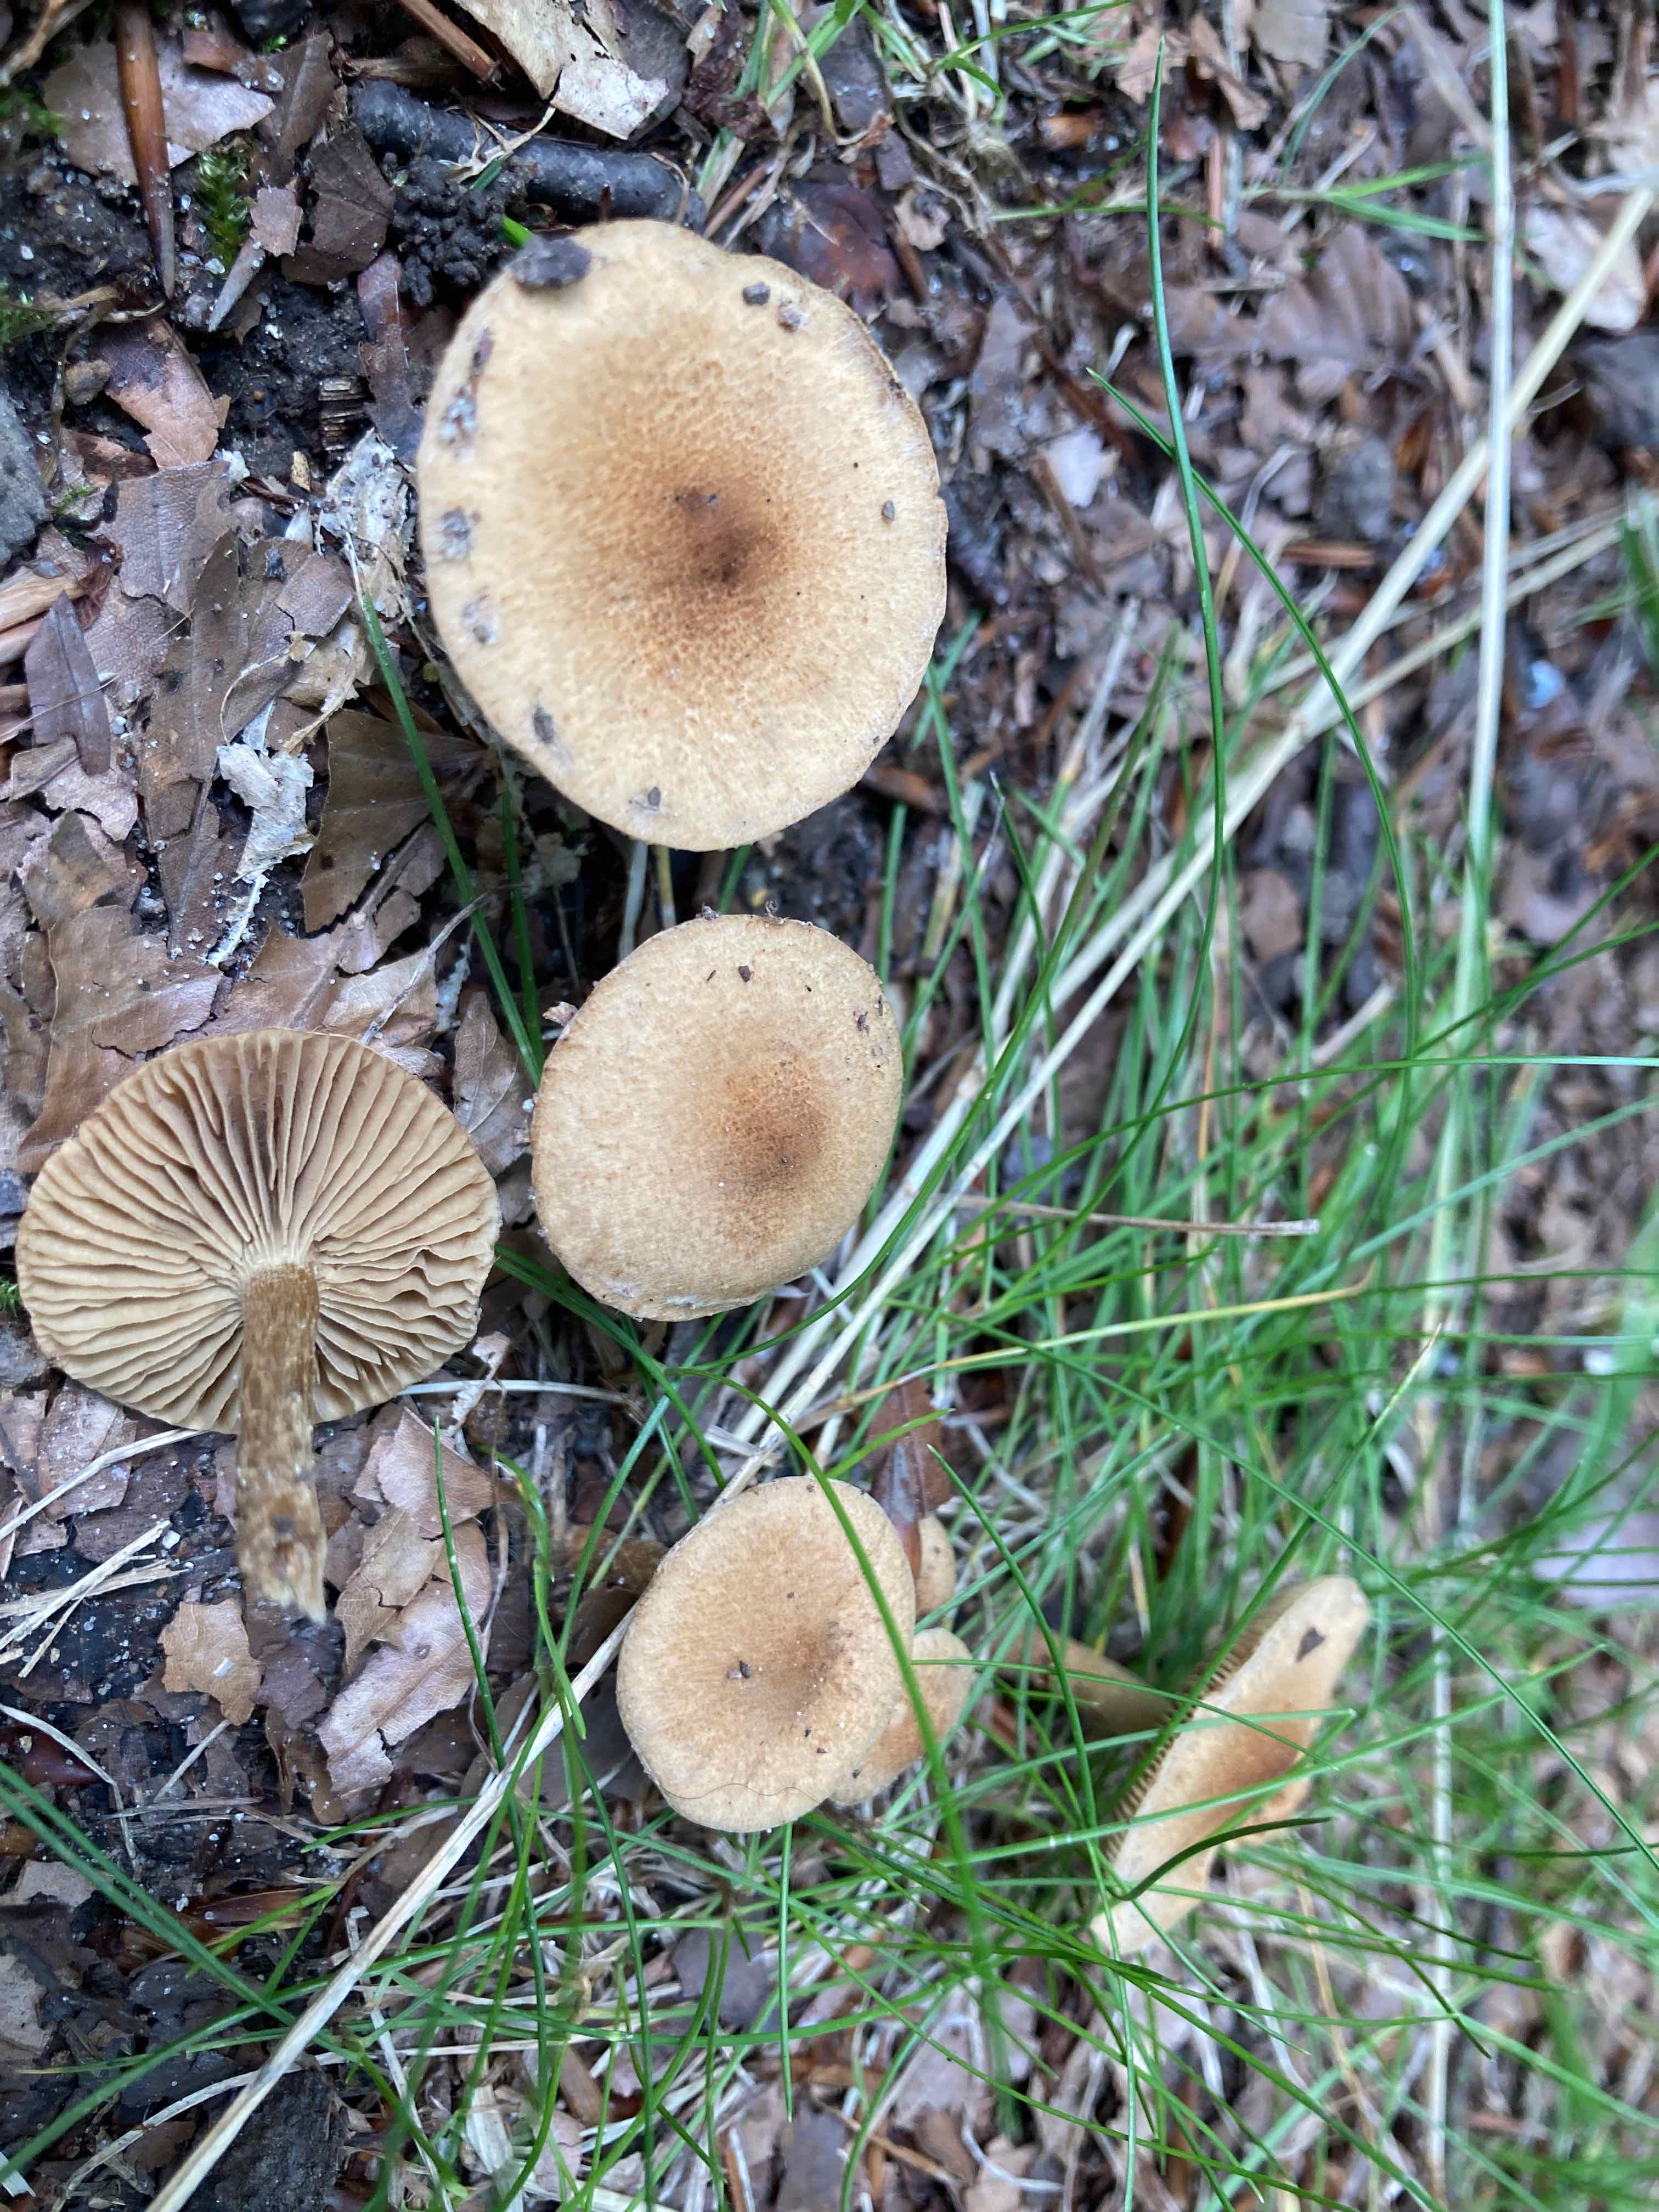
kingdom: Fungi
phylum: Basidiomycota
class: Agaricomycetes
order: Agaricales
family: Inocybaceae
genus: Inocybe
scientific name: Inocybe dulcamara
